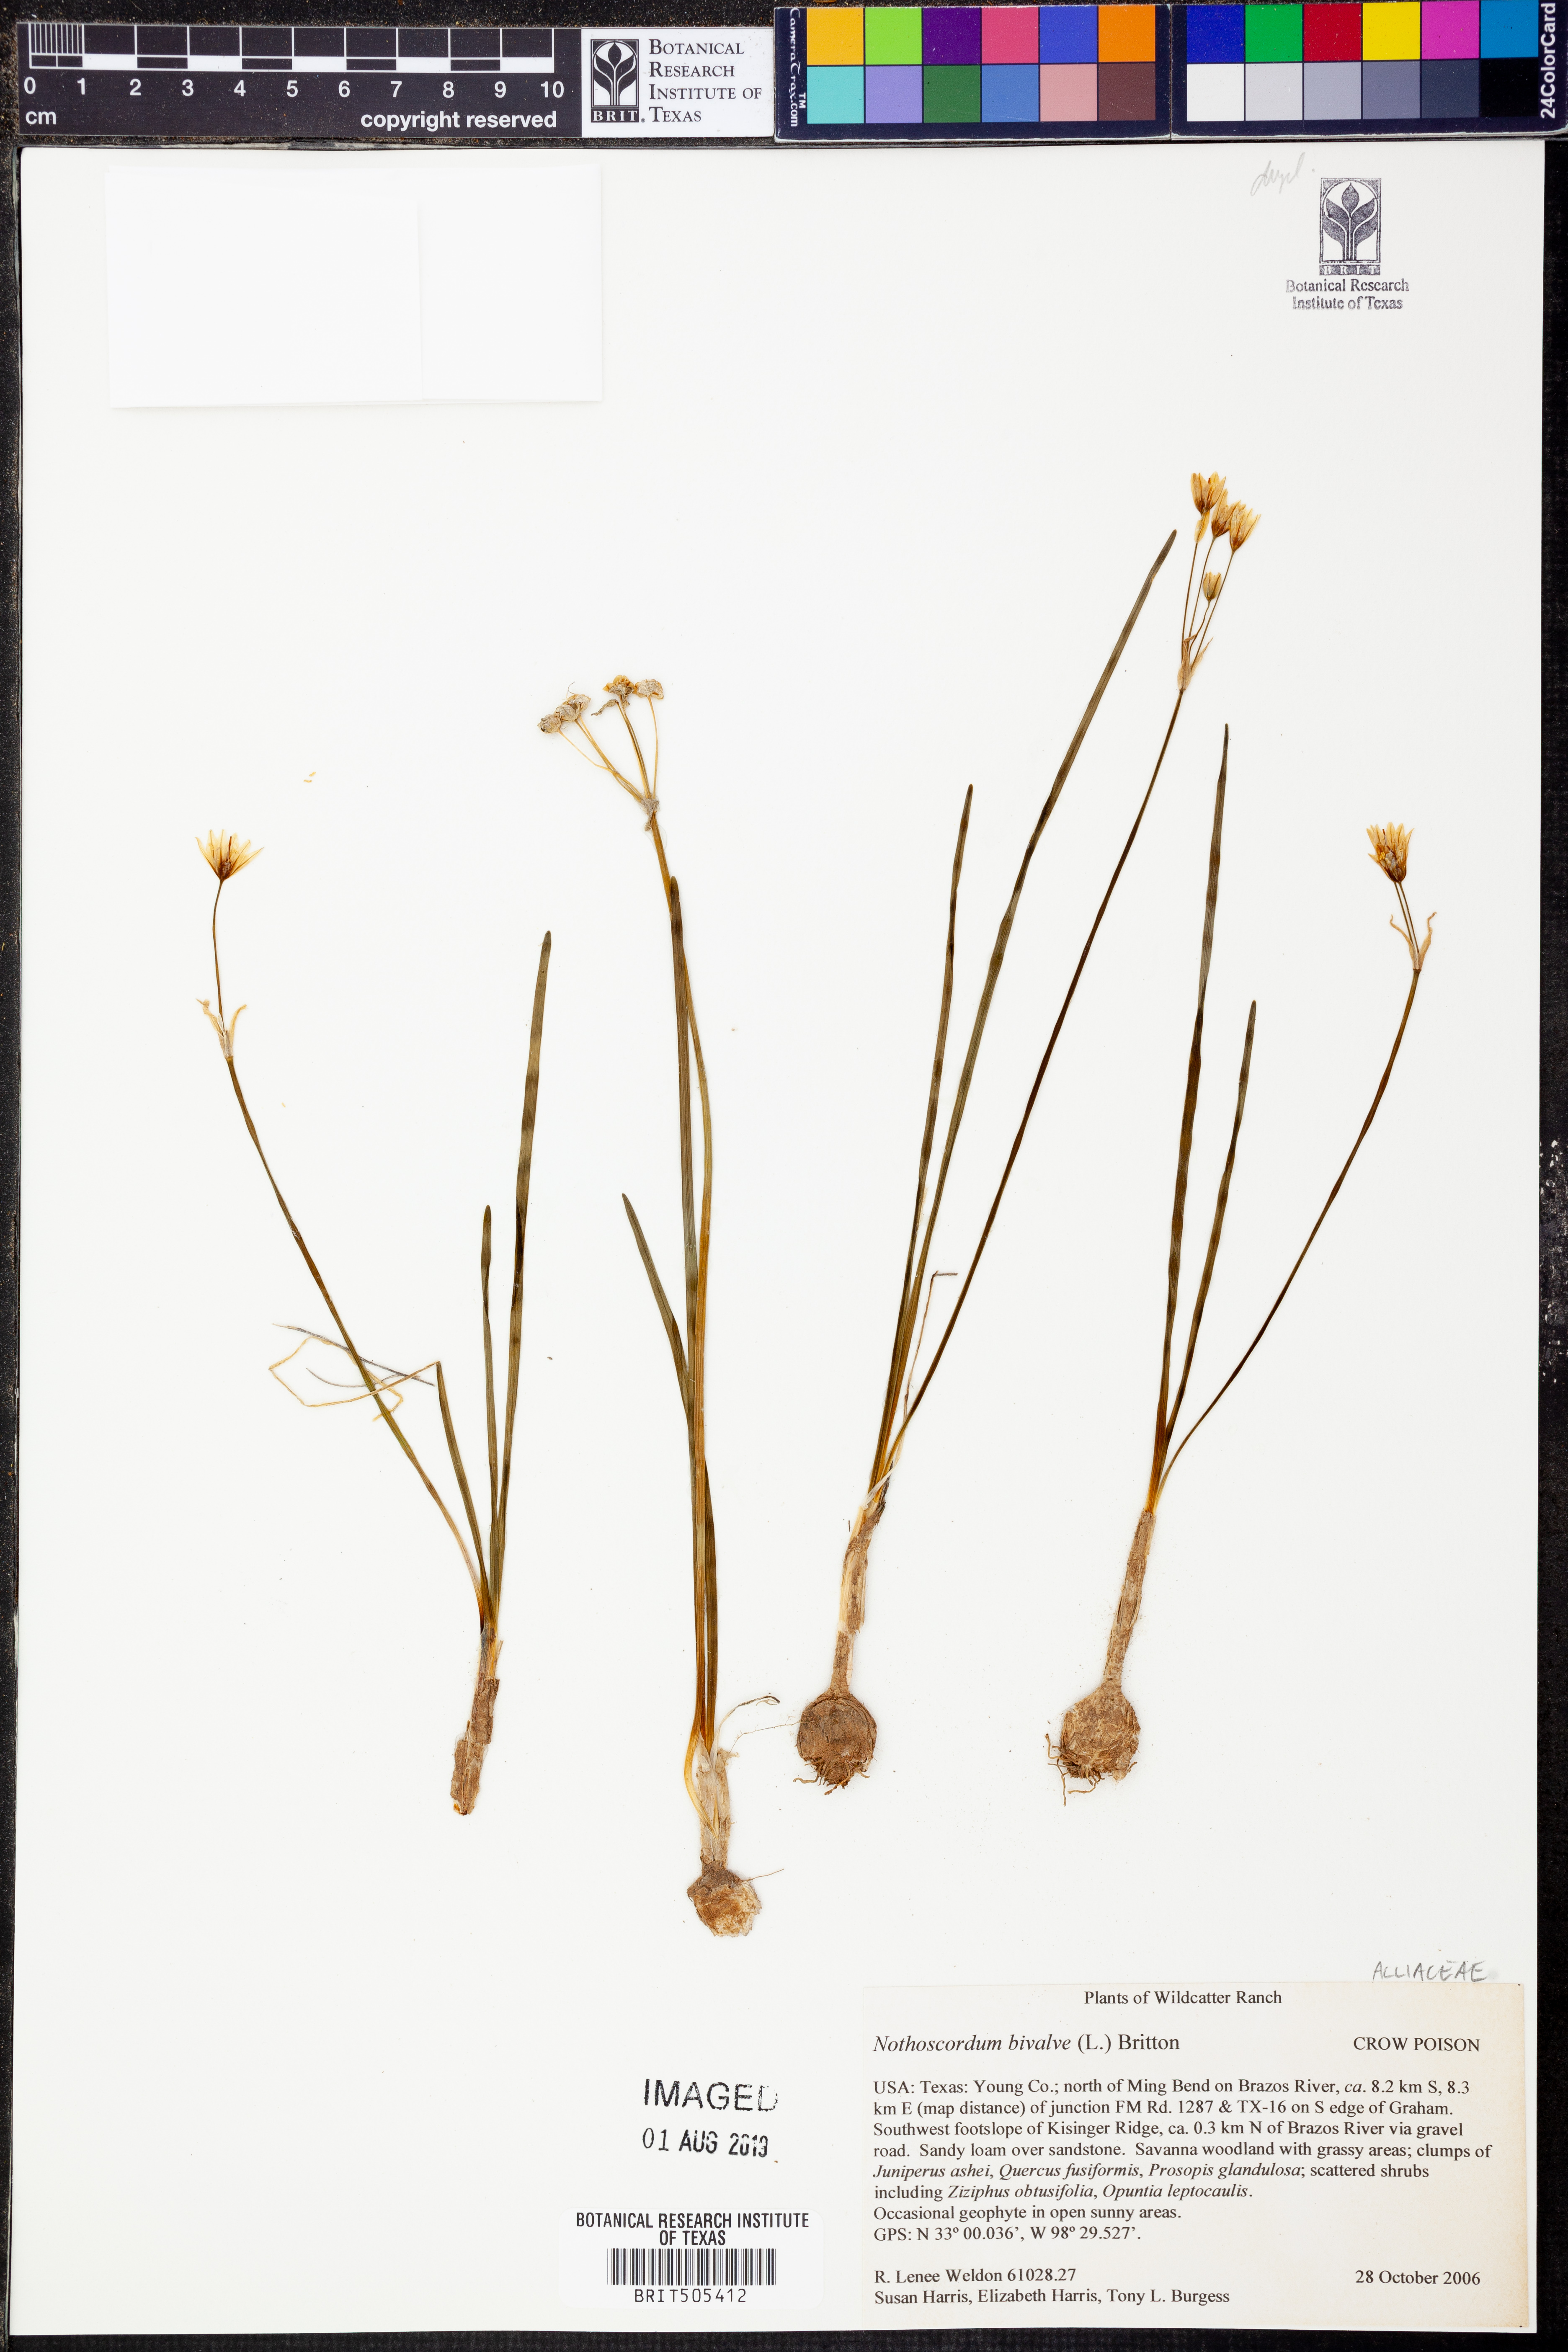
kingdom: Plantae
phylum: Tracheophyta
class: Liliopsida
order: Asparagales
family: Amaryllidaceae
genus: Nothoscordum
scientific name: Nothoscordum bivalve
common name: Crow-poison
